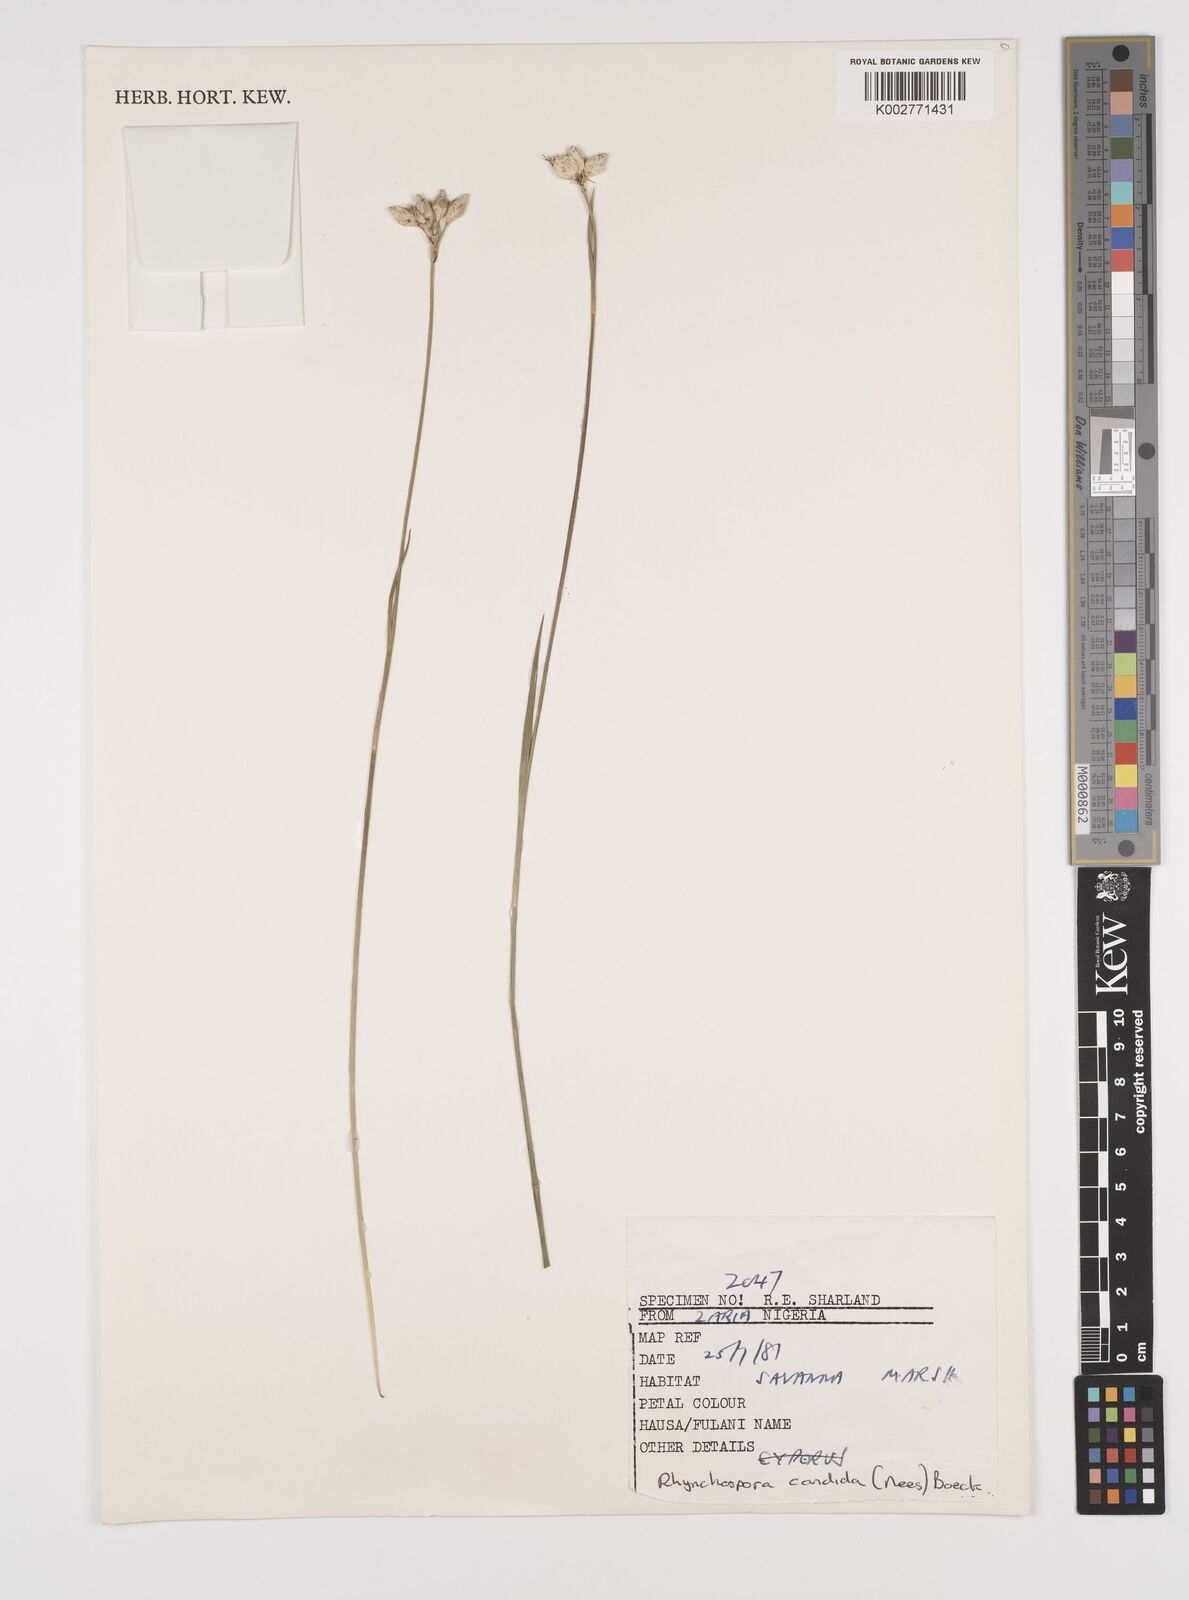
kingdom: Plantae
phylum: Tracheophyta
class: Liliopsida
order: Poales
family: Cyperaceae
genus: Rhynchospora
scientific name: Rhynchospora candida
